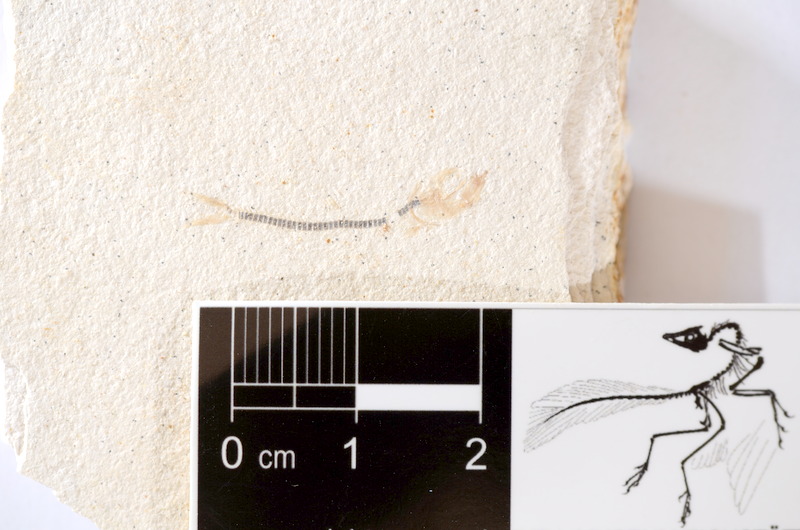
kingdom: Animalia
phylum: Chordata
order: Salmoniformes
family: Orthogonikleithridae
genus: Orthogonikleithrus
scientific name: Orthogonikleithrus hoelli
